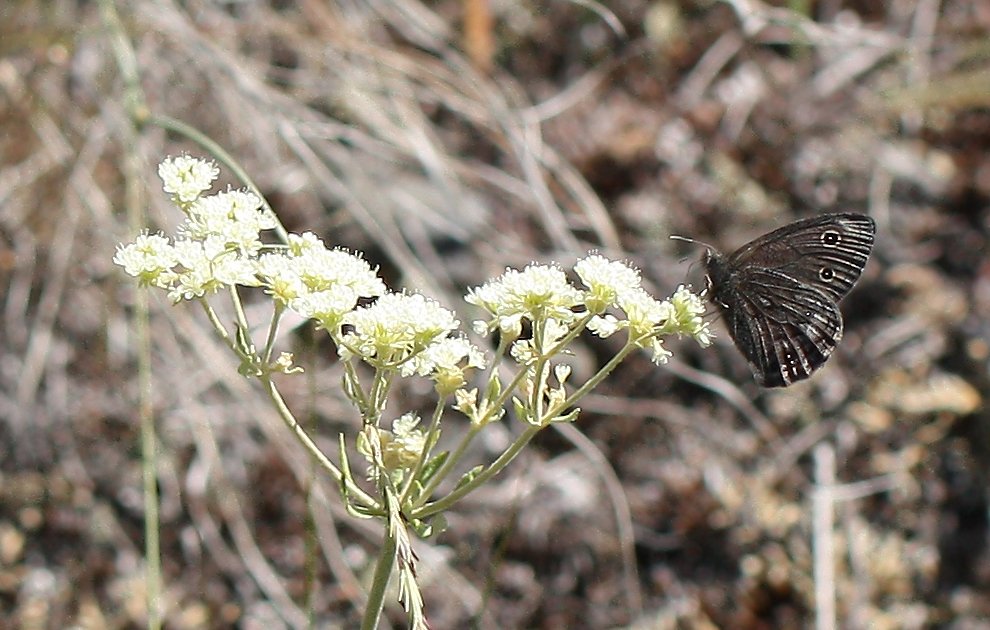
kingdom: Animalia
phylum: Arthropoda
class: Insecta
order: Lepidoptera
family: Nymphalidae
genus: Cercyonis
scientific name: Cercyonis sthenele
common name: Great Basin Wood-Nymph
